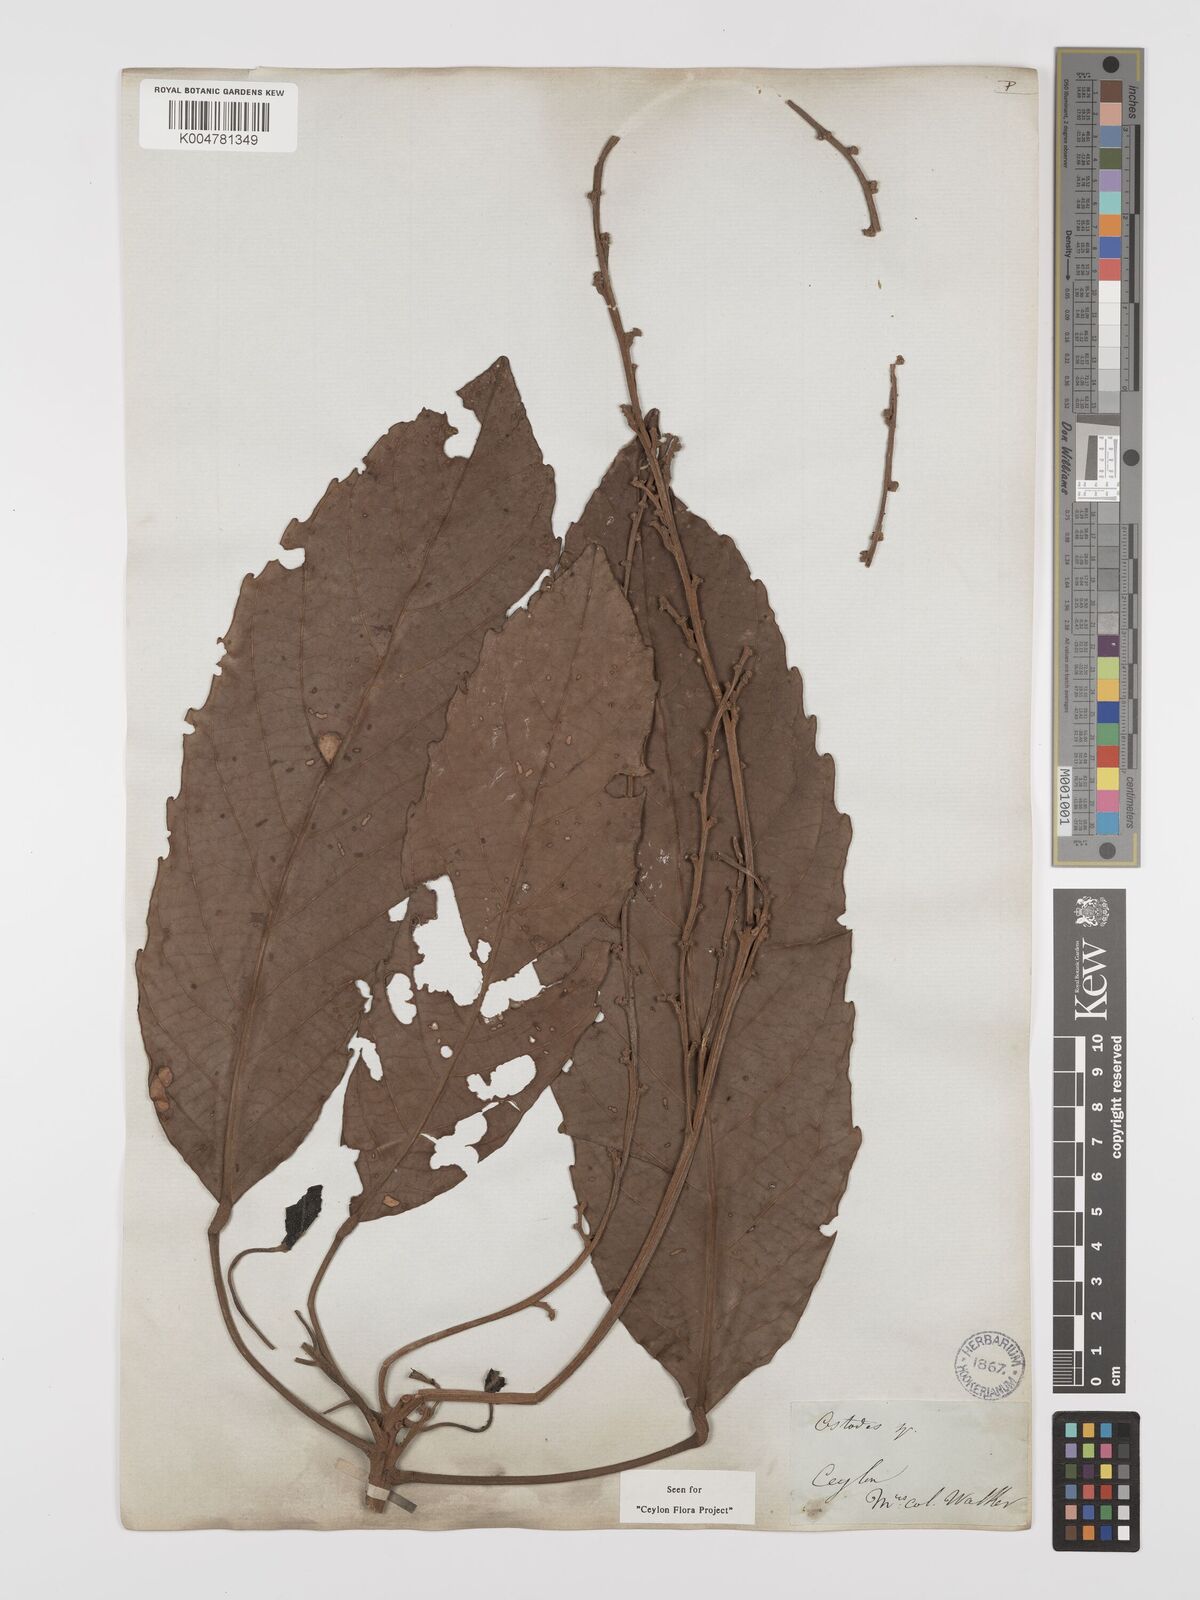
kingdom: Plantae
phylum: Tracheophyta
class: Magnoliopsida
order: Malpighiales
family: Euphorbiaceae
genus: Paracroton
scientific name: Paracroton zeylanicus
